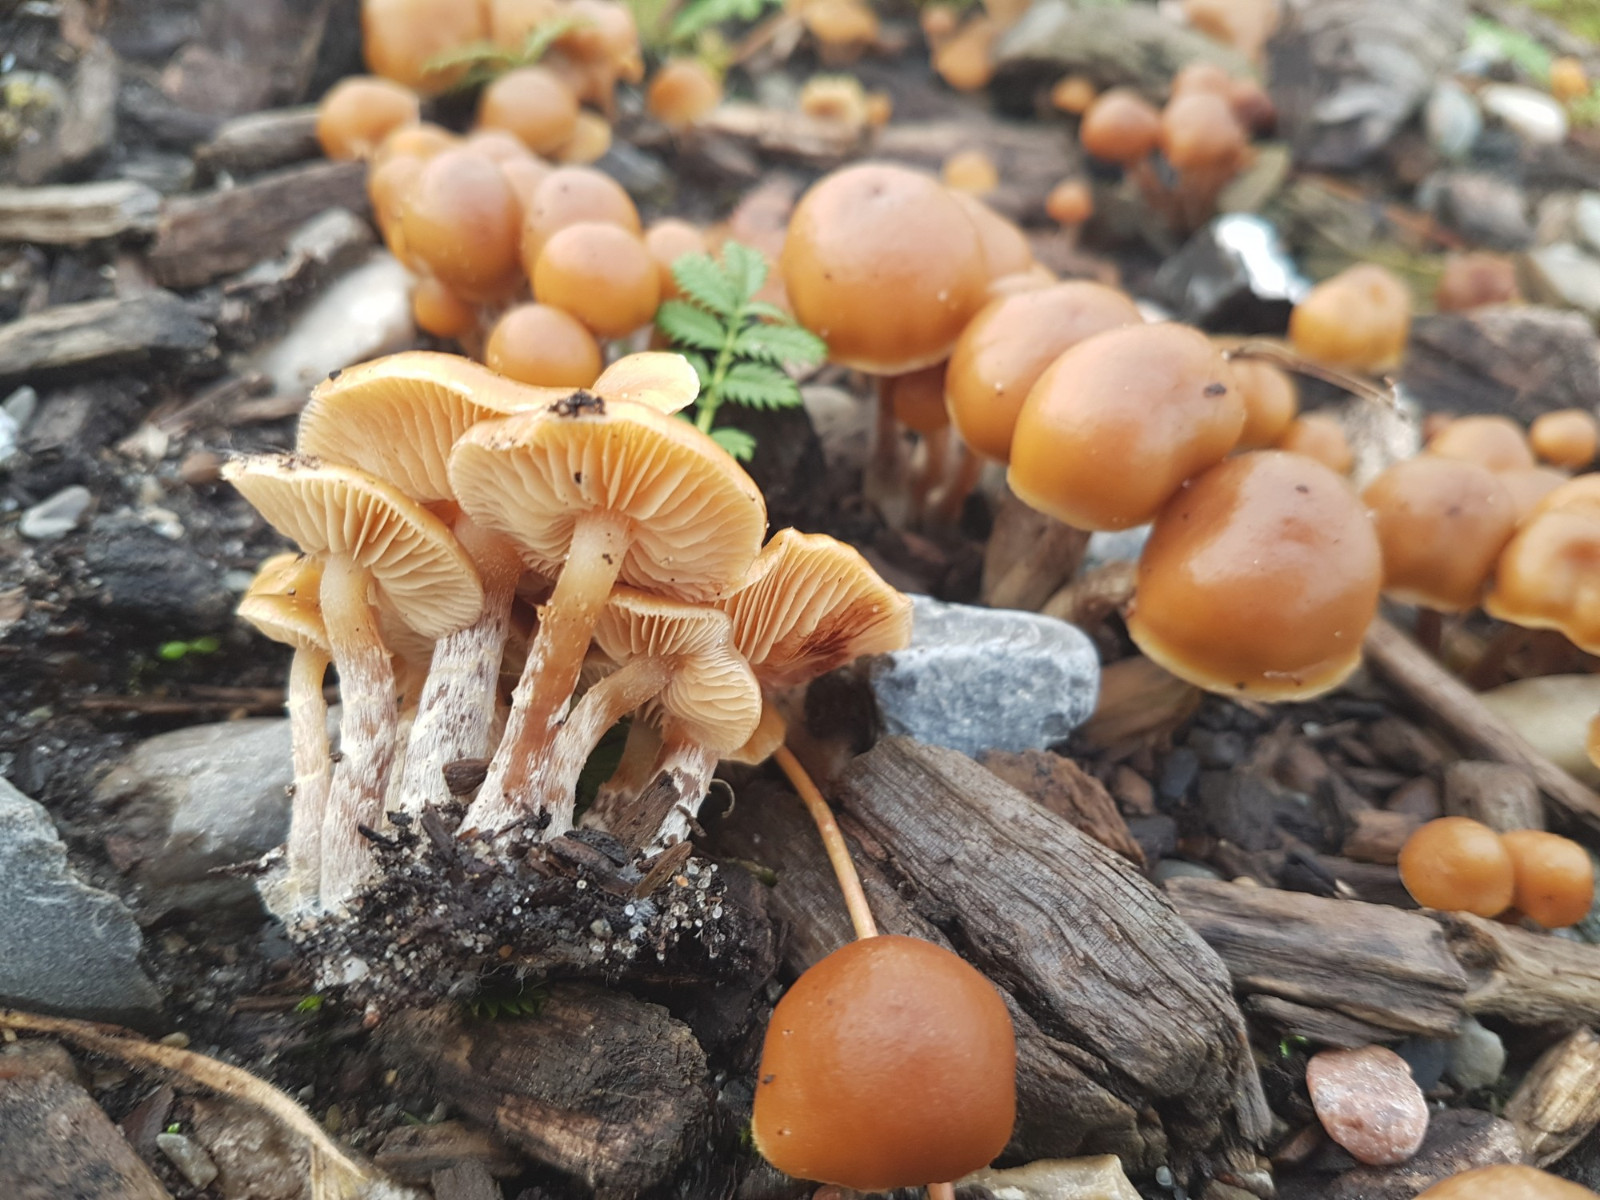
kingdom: Fungi
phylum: Basidiomycota
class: Agaricomycetes
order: Agaricales
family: Hymenogastraceae
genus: Galerina
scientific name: Galerina sideroides
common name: træflis-hjelmhat
